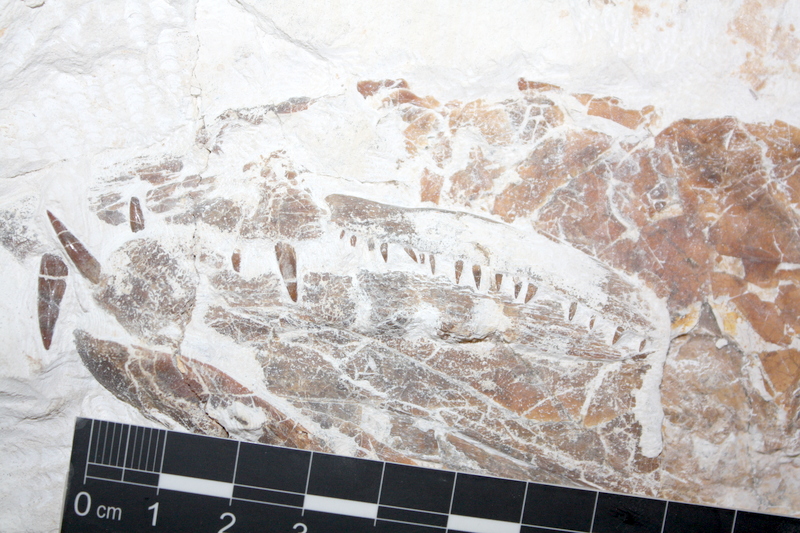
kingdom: Animalia
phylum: Chordata
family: Pachycormidae
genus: Orthocormus
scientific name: Orthocormus
